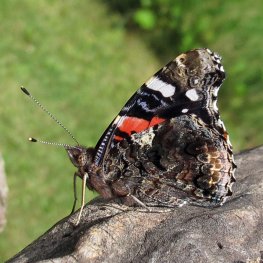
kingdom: Animalia
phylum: Arthropoda
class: Insecta
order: Lepidoptera
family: Nymphalidae
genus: Vanessa
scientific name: Vanessa atalanta
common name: Red Admiral
